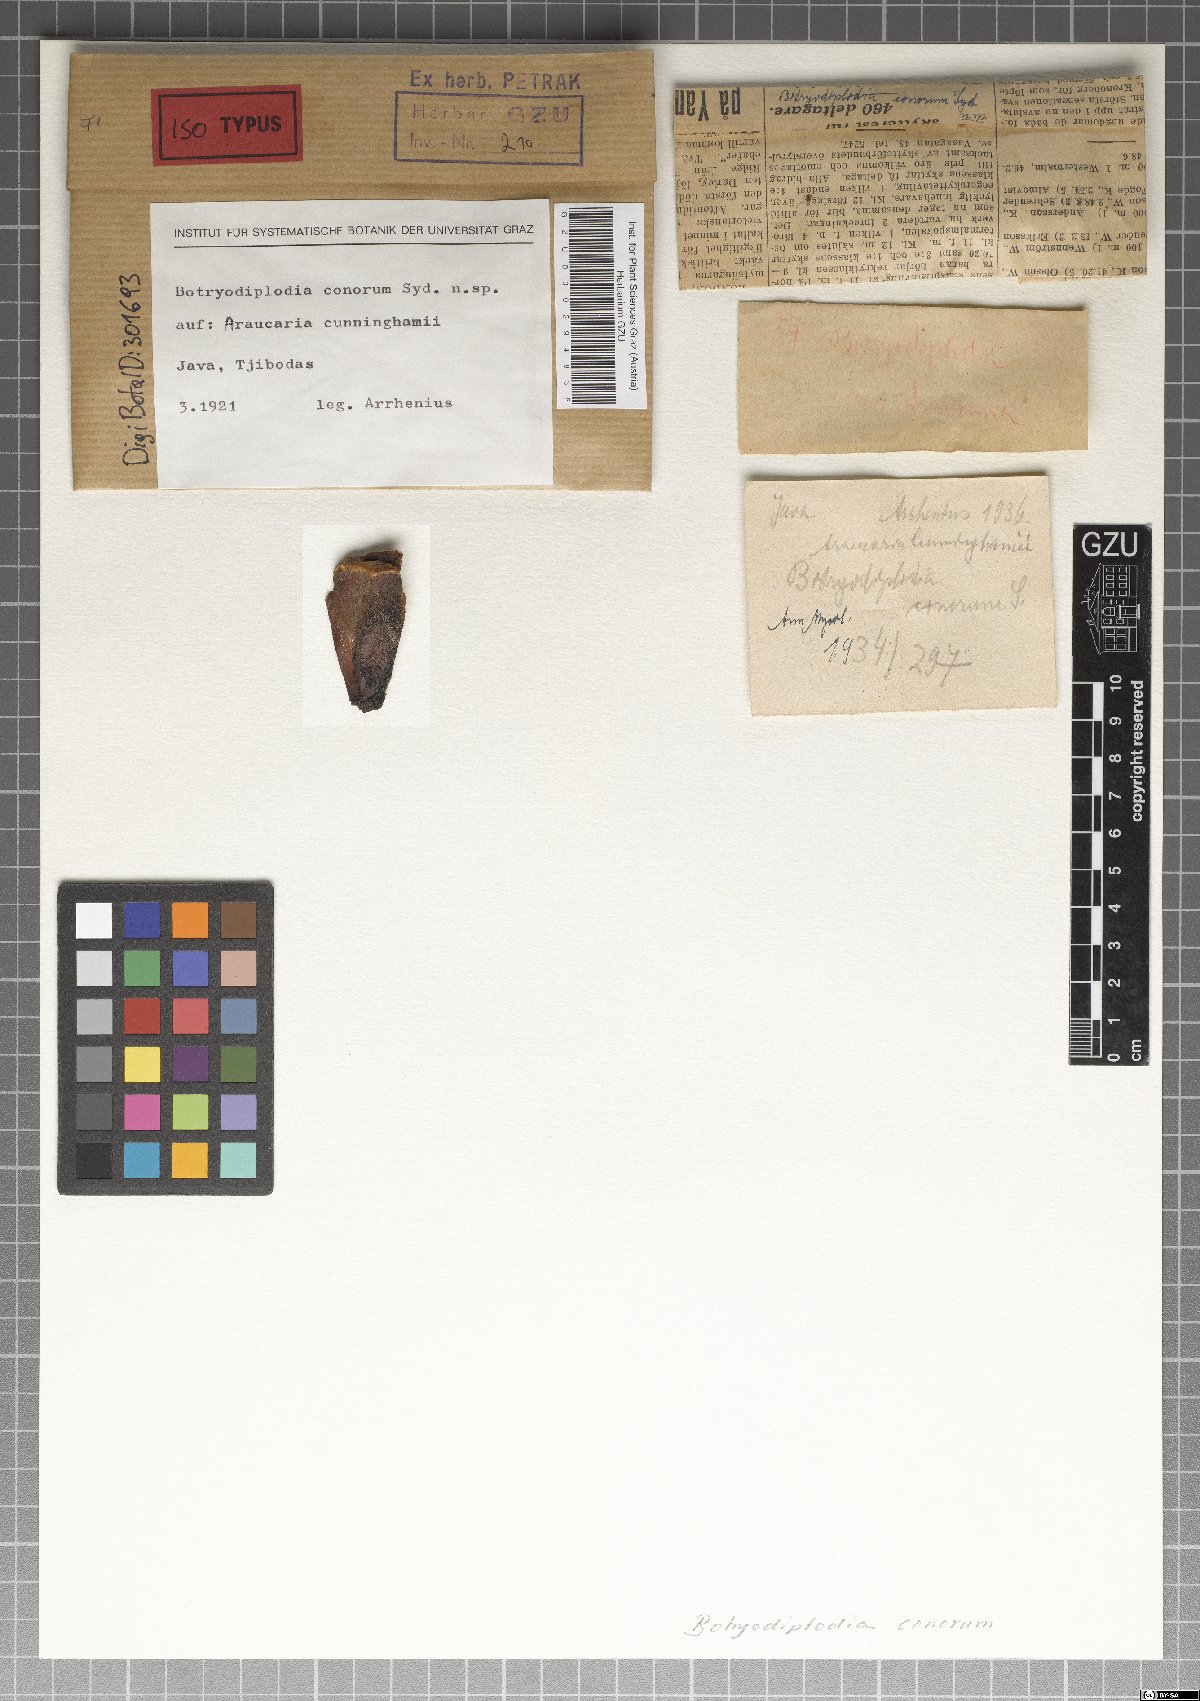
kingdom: Fungi
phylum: Ascomycota
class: Sordariomycetes
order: Diaporthales
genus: Botryodiplodia
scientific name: Botryodiplodia conorum
